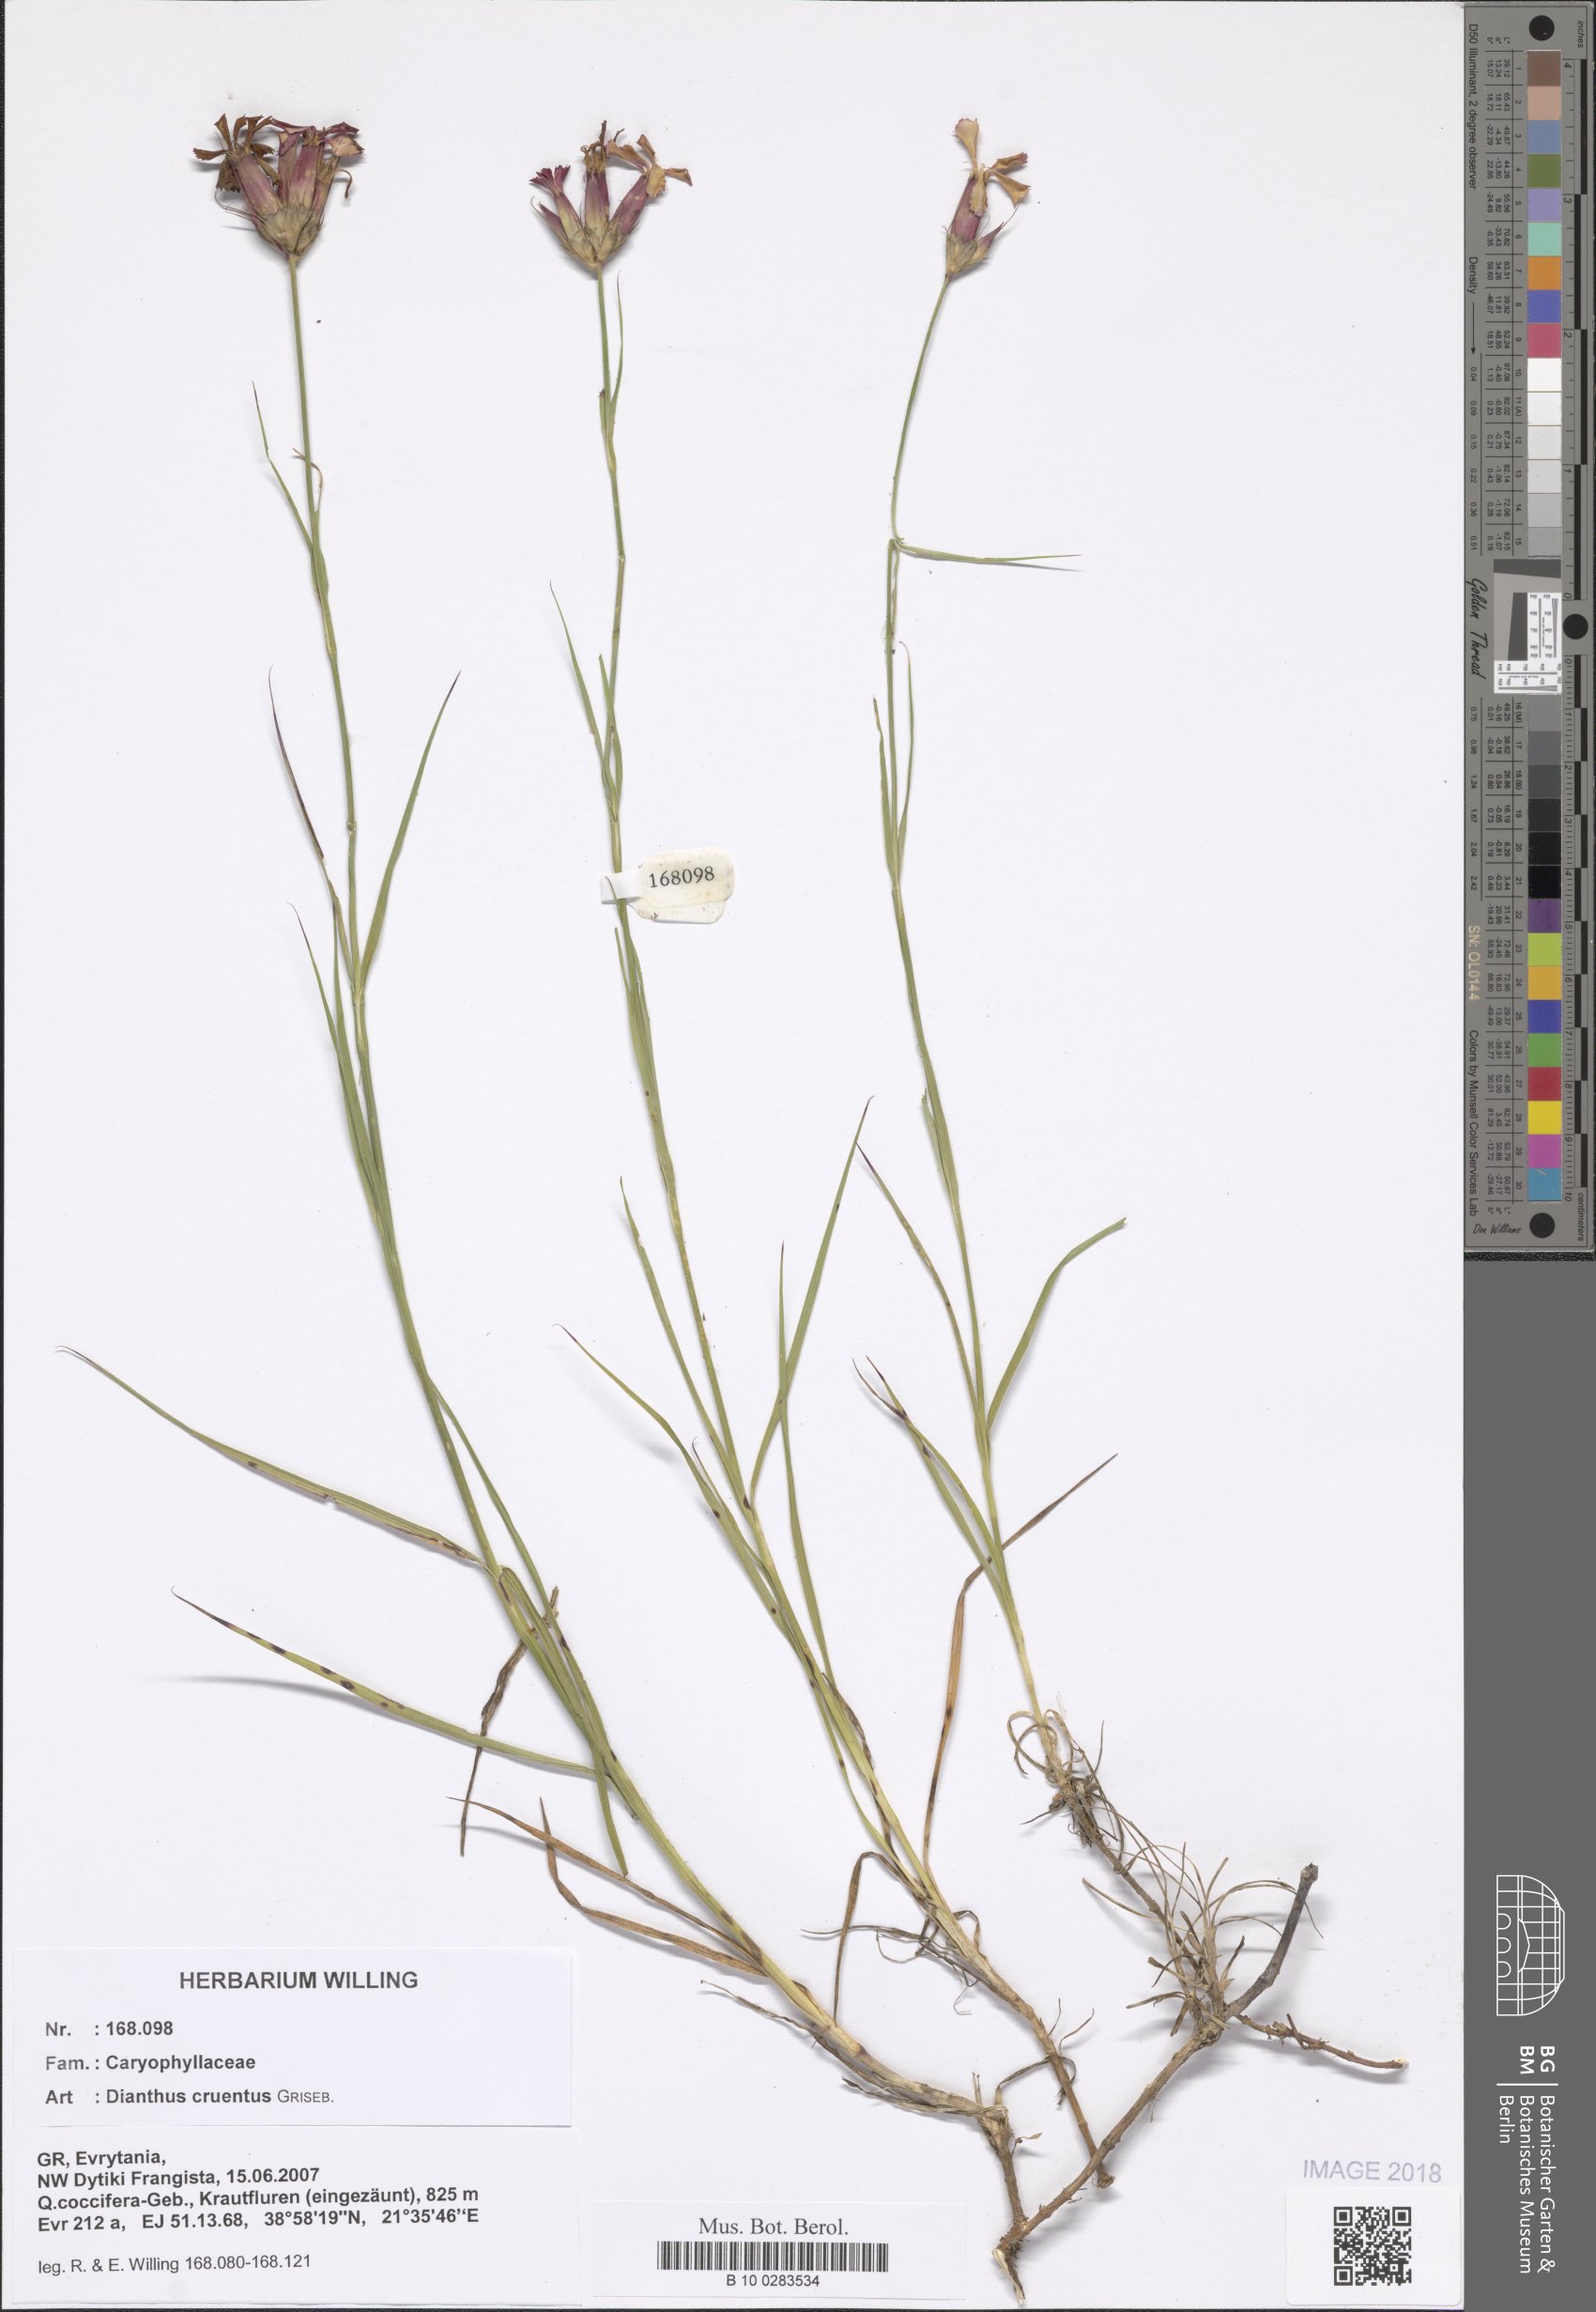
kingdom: Plantae
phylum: Tracheophyta
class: Magnoliopsida
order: Caryophyllales
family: Caryophyllaceae
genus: Dianthus
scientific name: Dianthus cruentus
